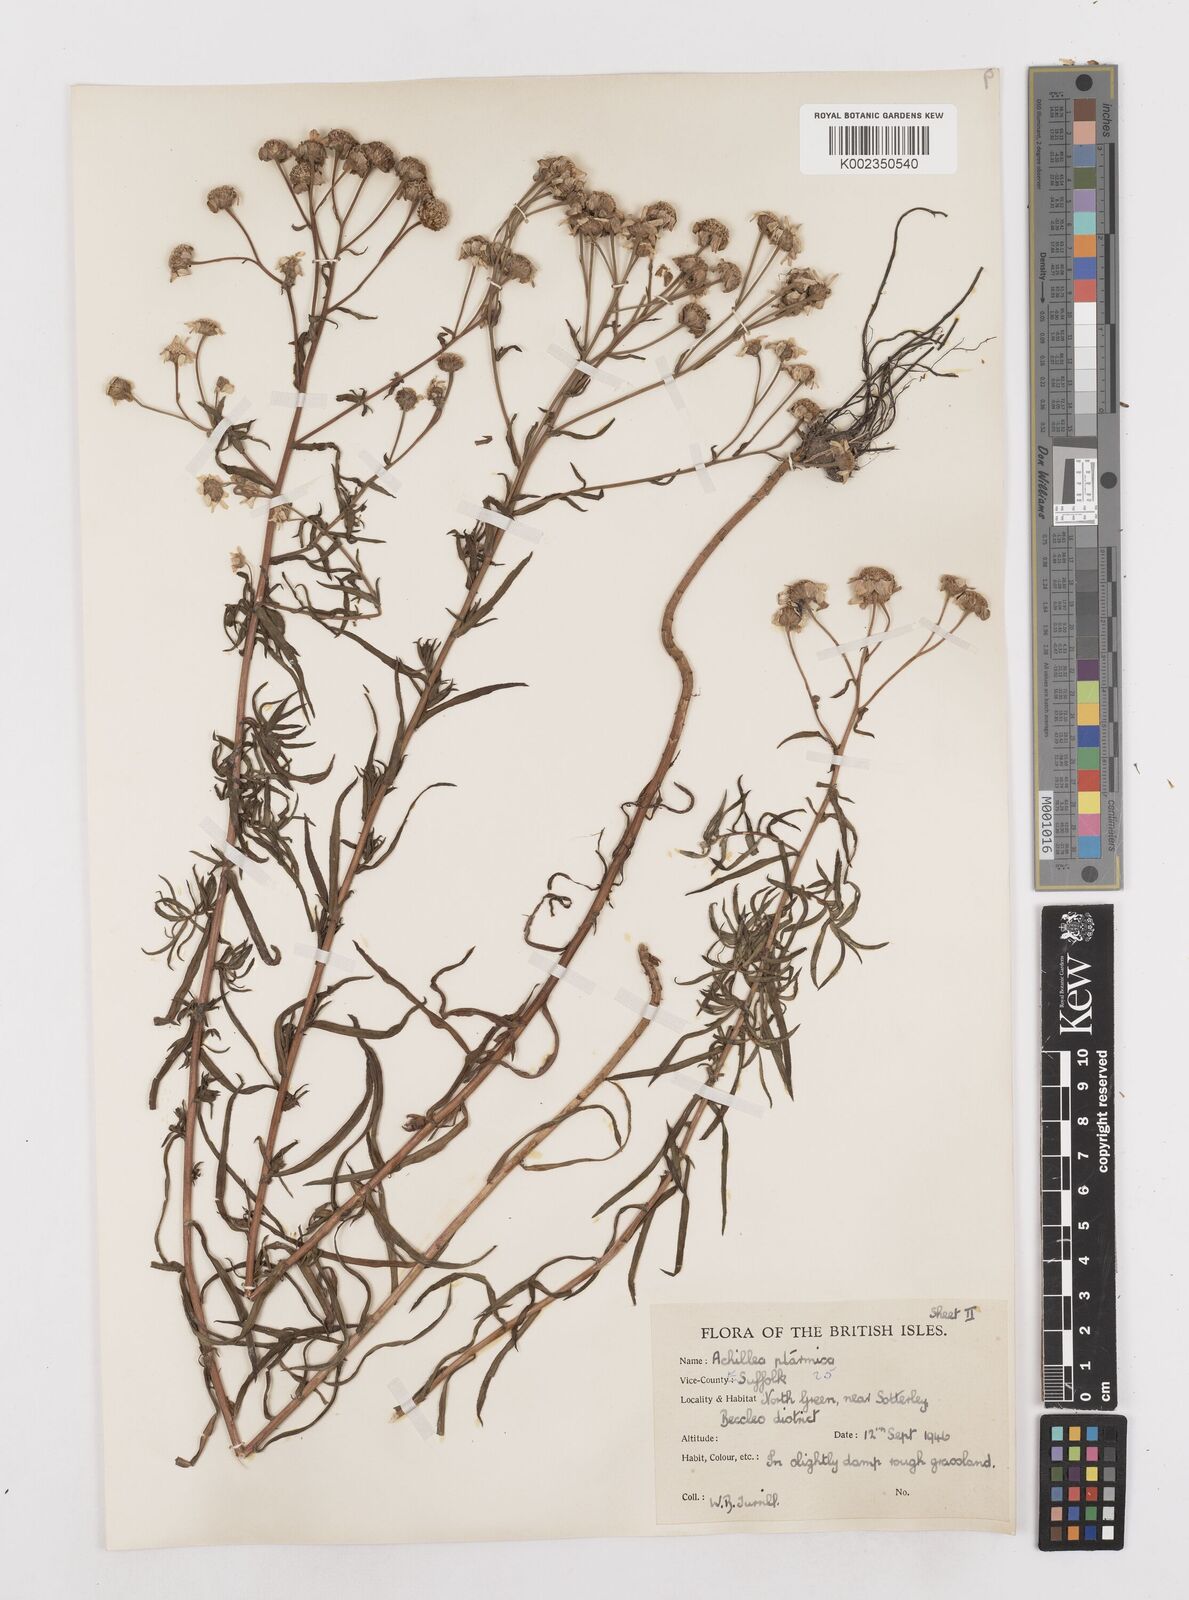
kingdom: Plantae
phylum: Tracheophyta
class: Magnoliopsida
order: Asterales
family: Asteraceae
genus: Achillea
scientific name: Achillea ptarmica
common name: Sneezeweed
